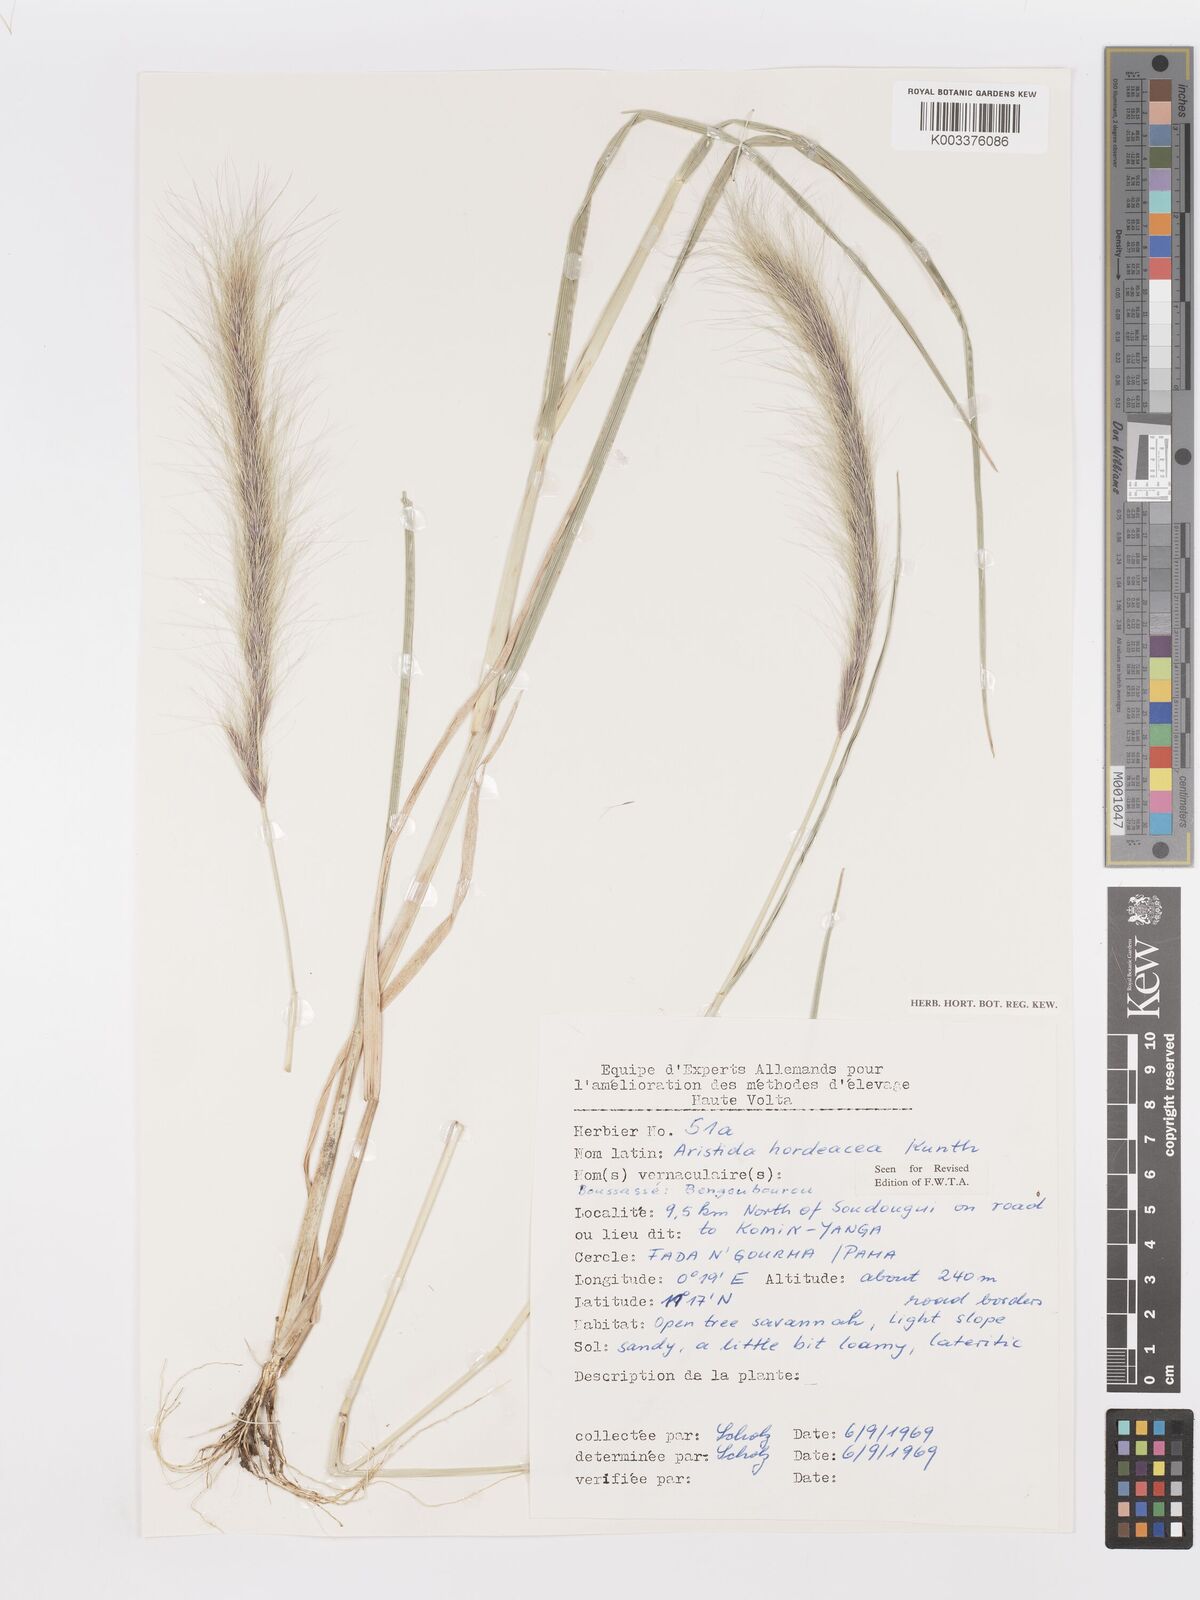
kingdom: Plantae
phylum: Tracheophyta
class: Liliopsida
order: Poales
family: Poaceae
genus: Aristida
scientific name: Aristida hordeacea
